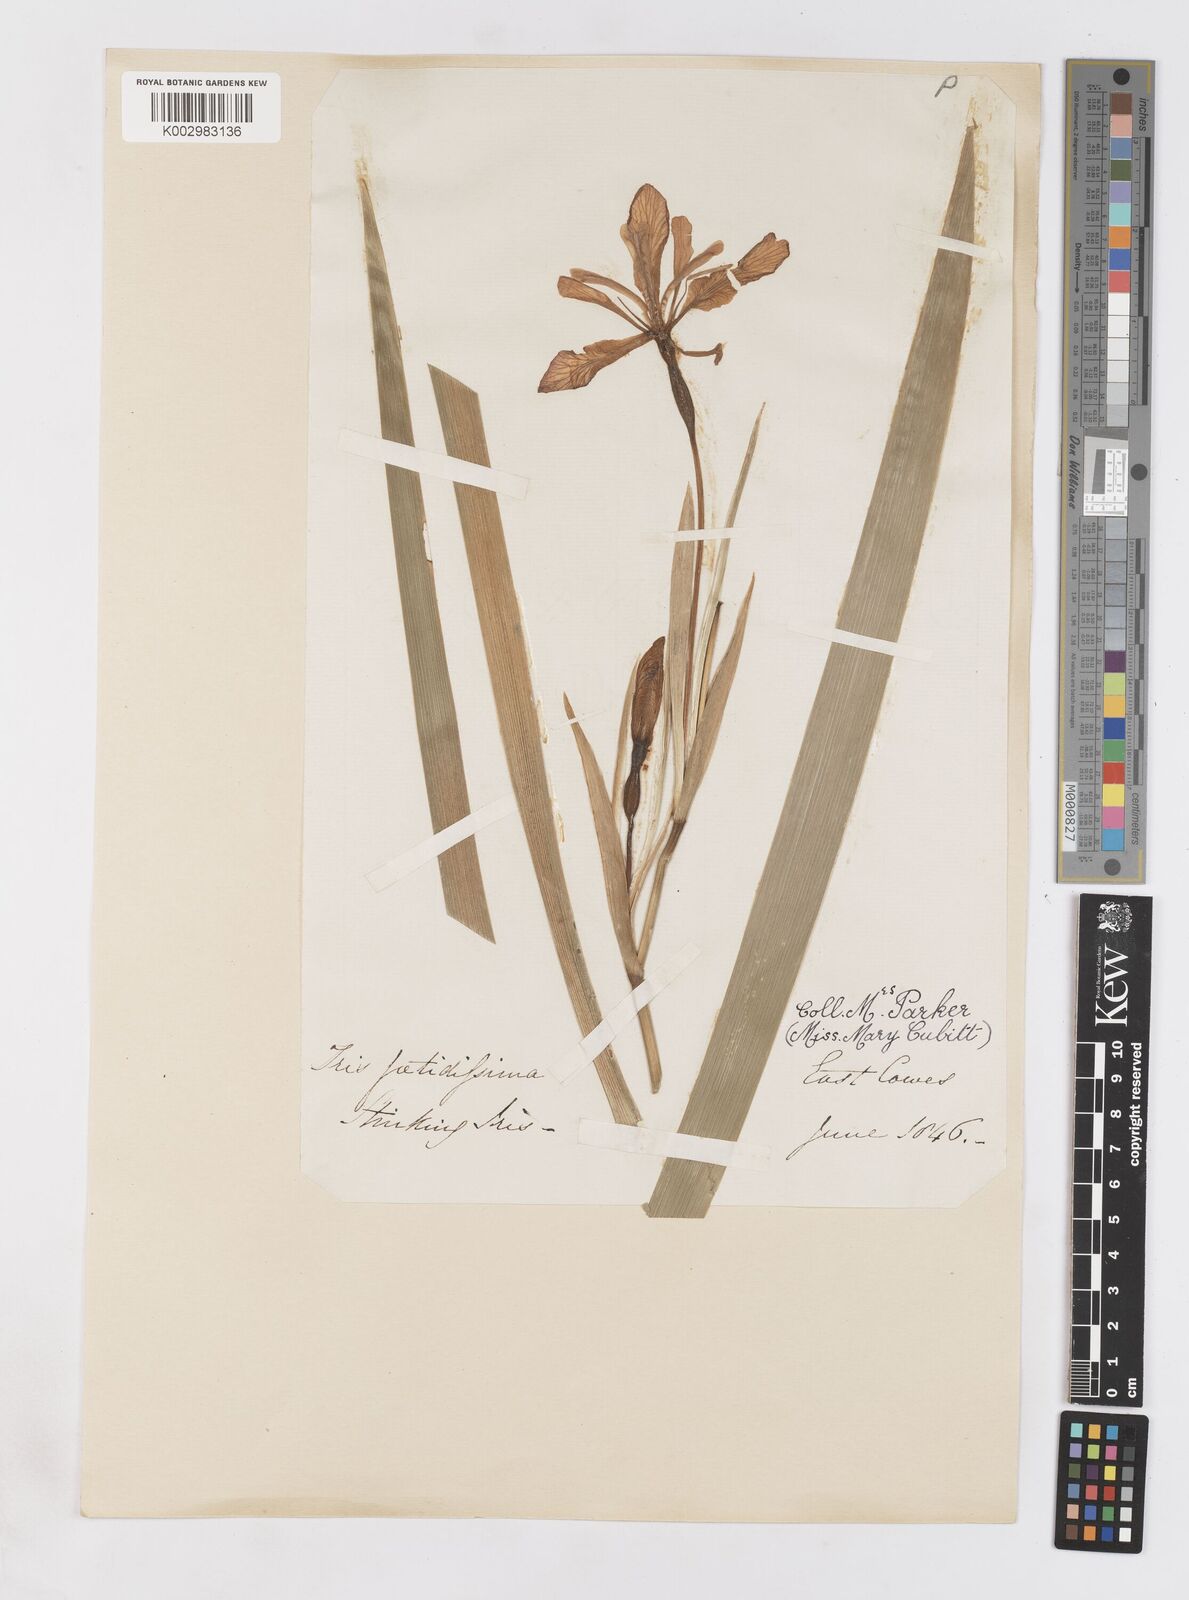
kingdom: Plantae
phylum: Tracheophyta
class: Liliopsida
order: Asparagales
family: Iridaceae
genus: Iris
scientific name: Iris foetidissima
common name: Stinking iris
